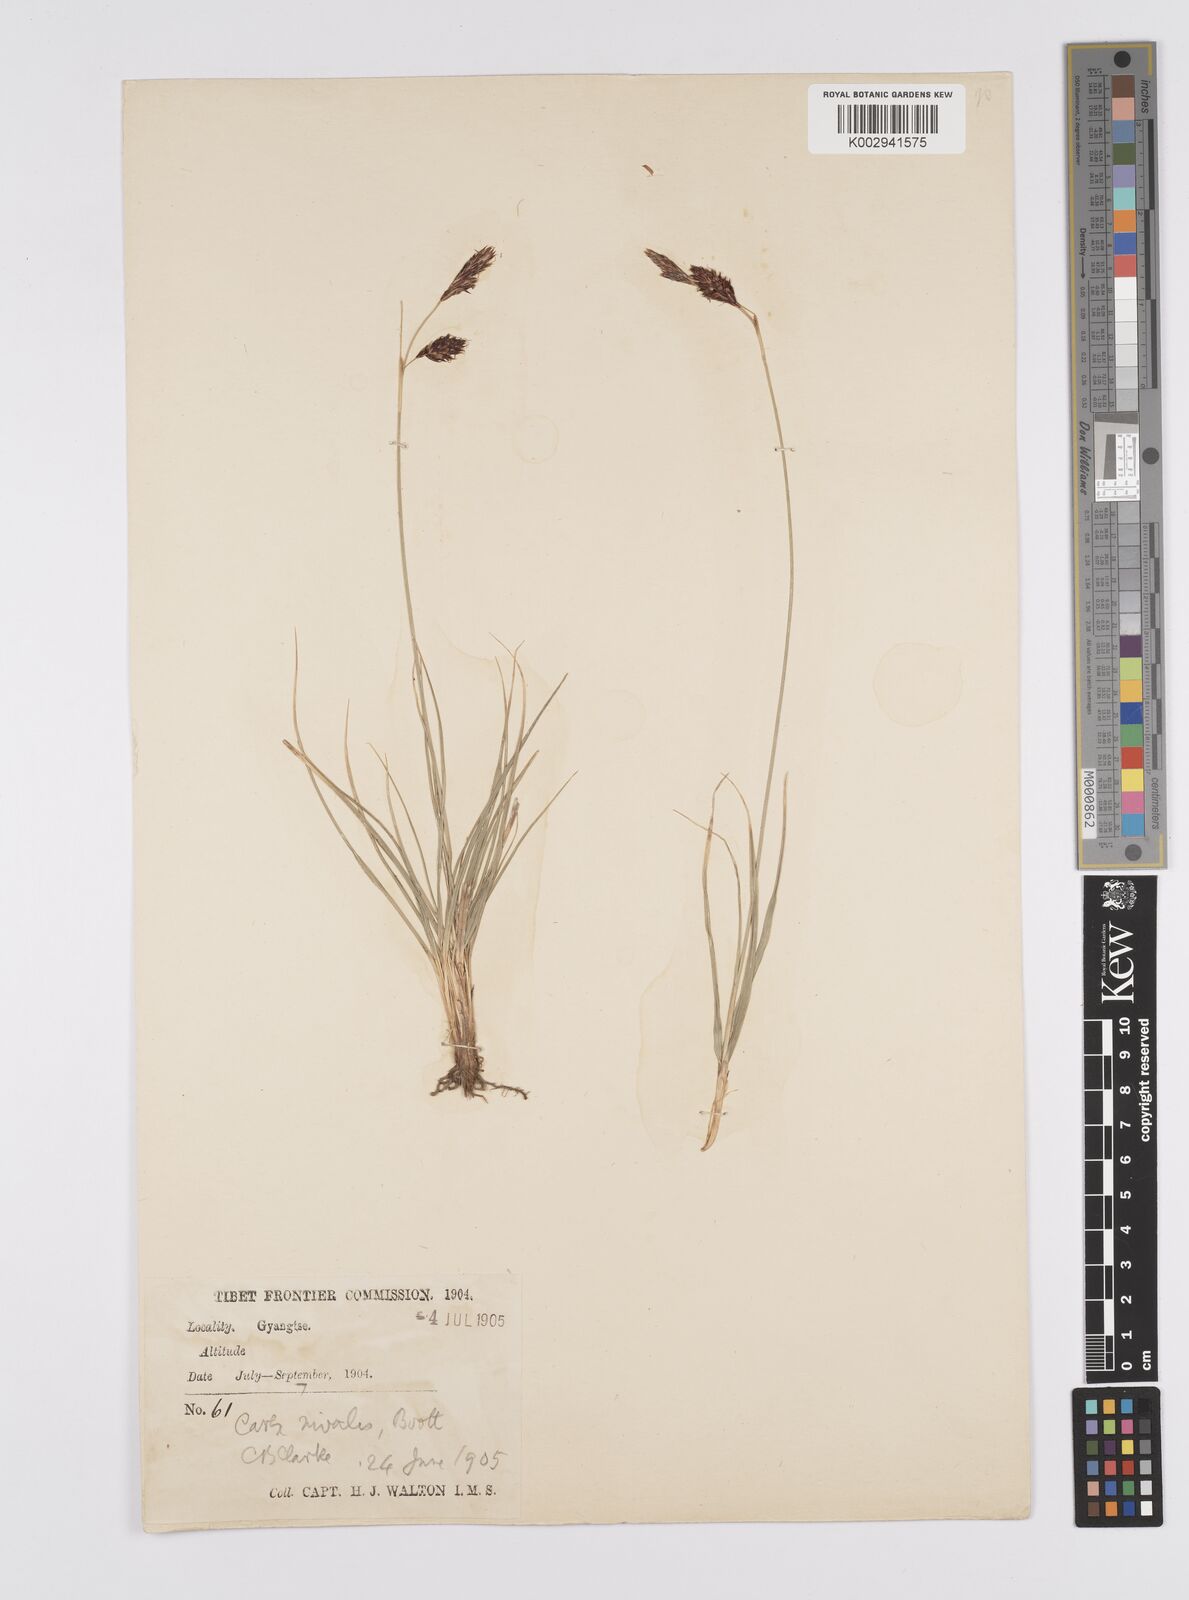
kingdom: Plantae
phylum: Tracheophyta
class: Liliopsida
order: Poales
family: Cyperaceae
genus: Carex
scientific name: Carex nivalis
